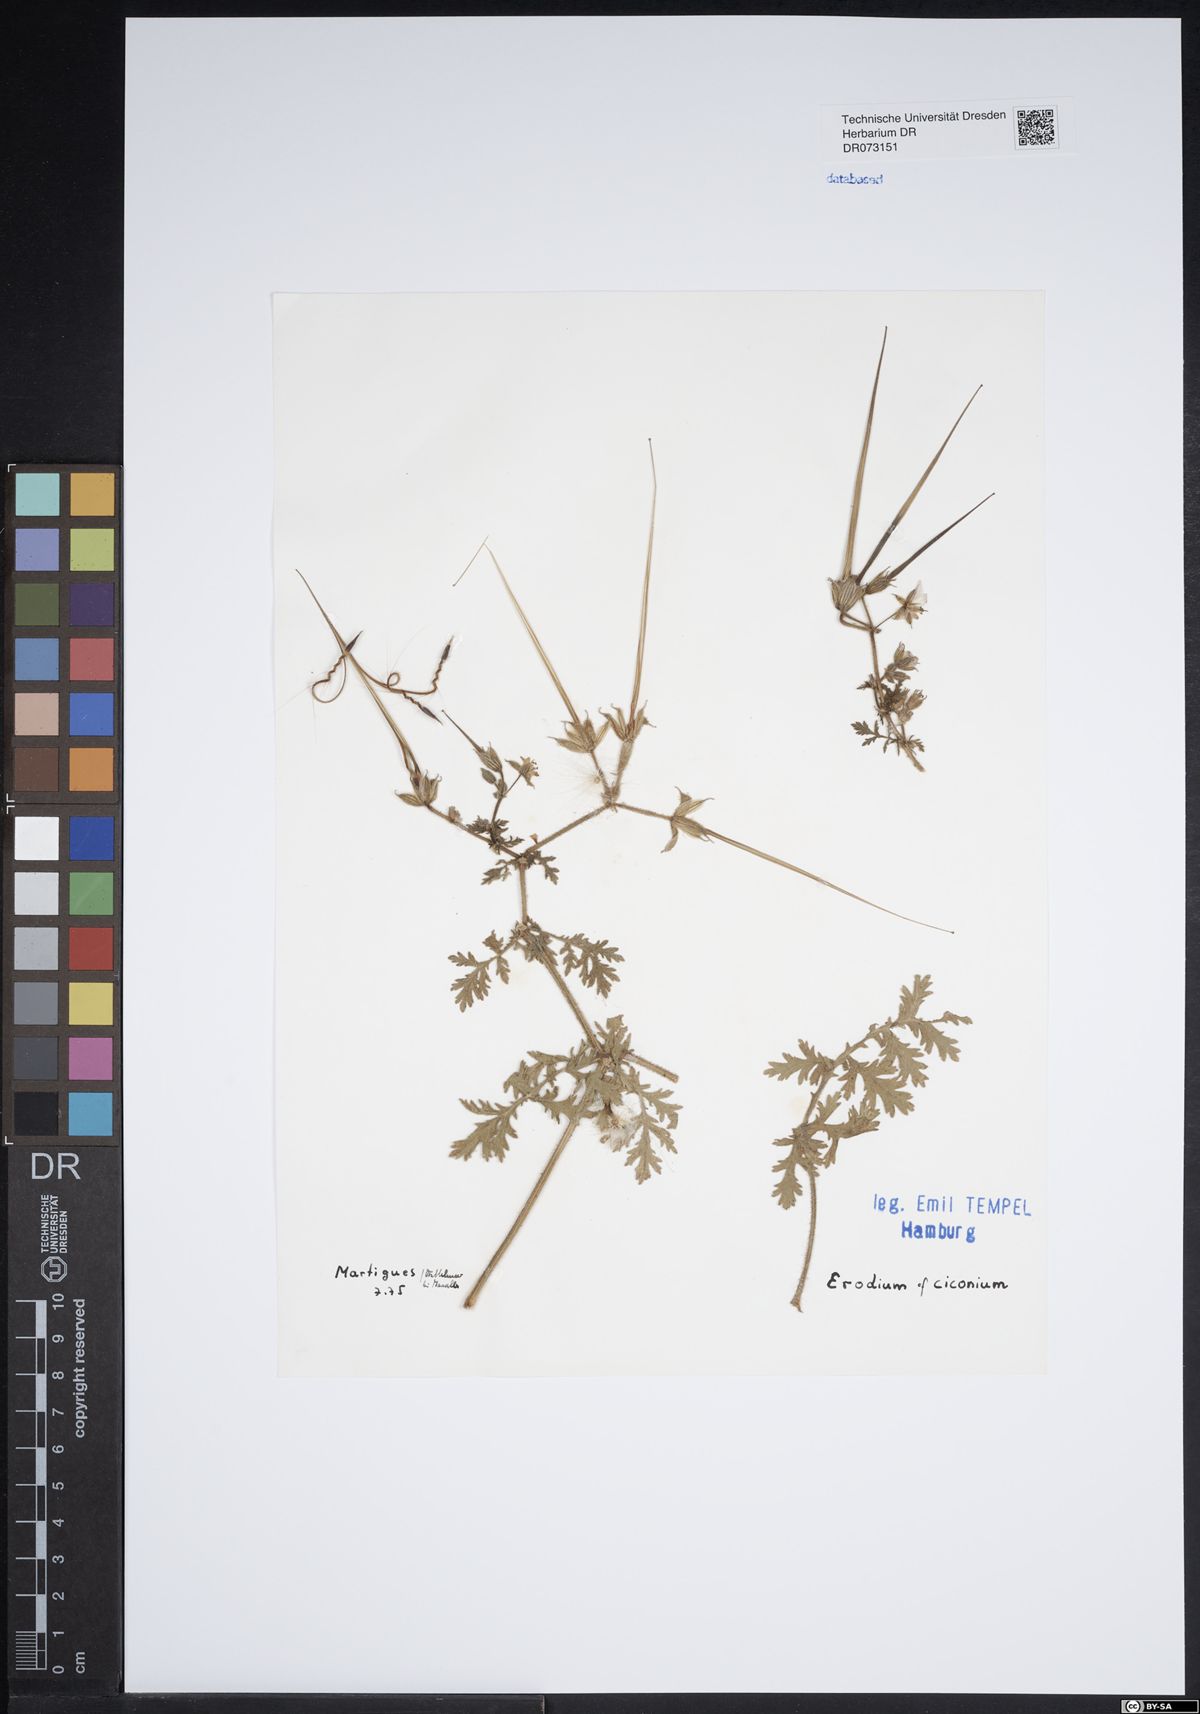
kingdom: Plantae
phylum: Tracheophyta
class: Magnoliopsida
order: Geraniales
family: Geraniaceae
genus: Erodium
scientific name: Erodium ciconium
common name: Common stork's bill
